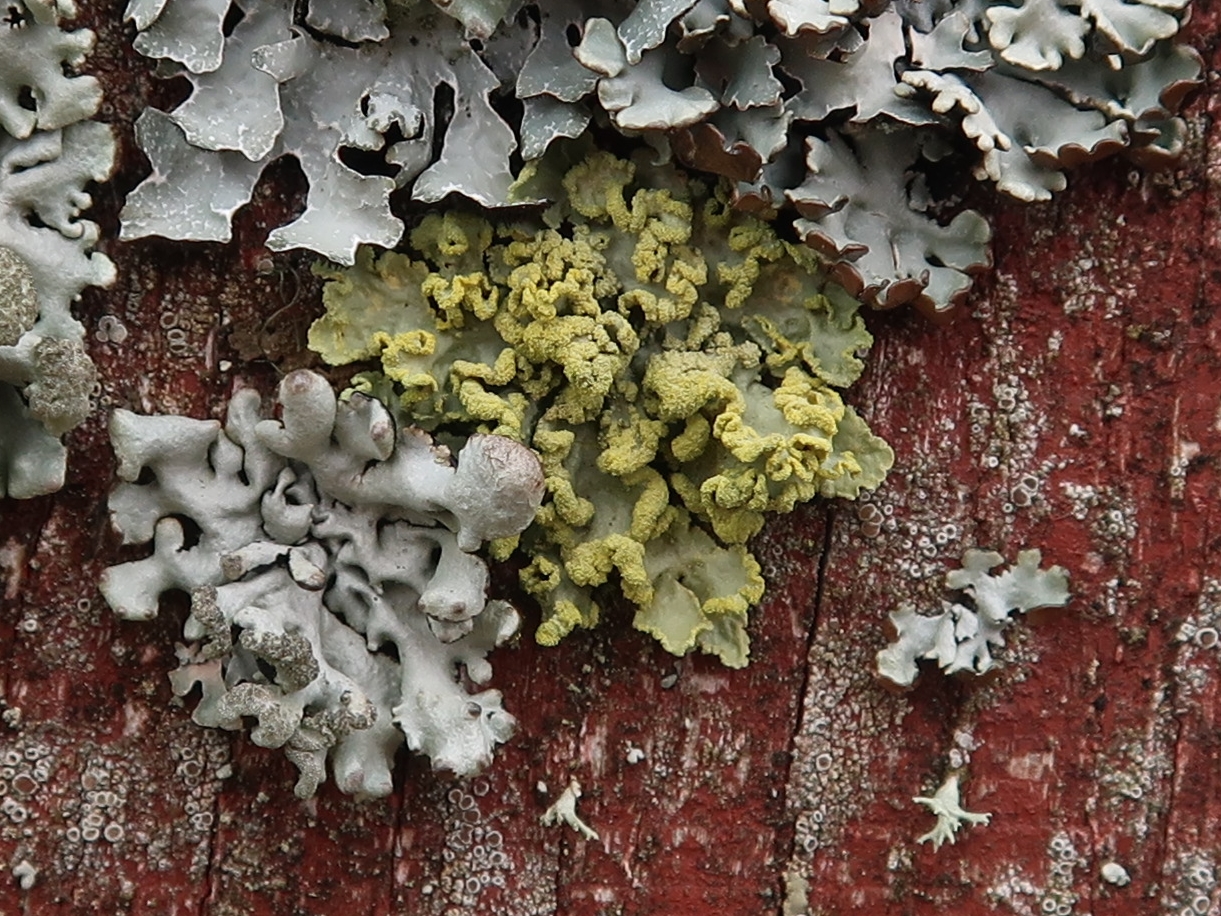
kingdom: Fungi
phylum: Ascomycota
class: Lecanoromycetes
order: Lecanorales
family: Parmeliaceae
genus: Vulpicida
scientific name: Vulpicida pinastri
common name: gul kruslav
